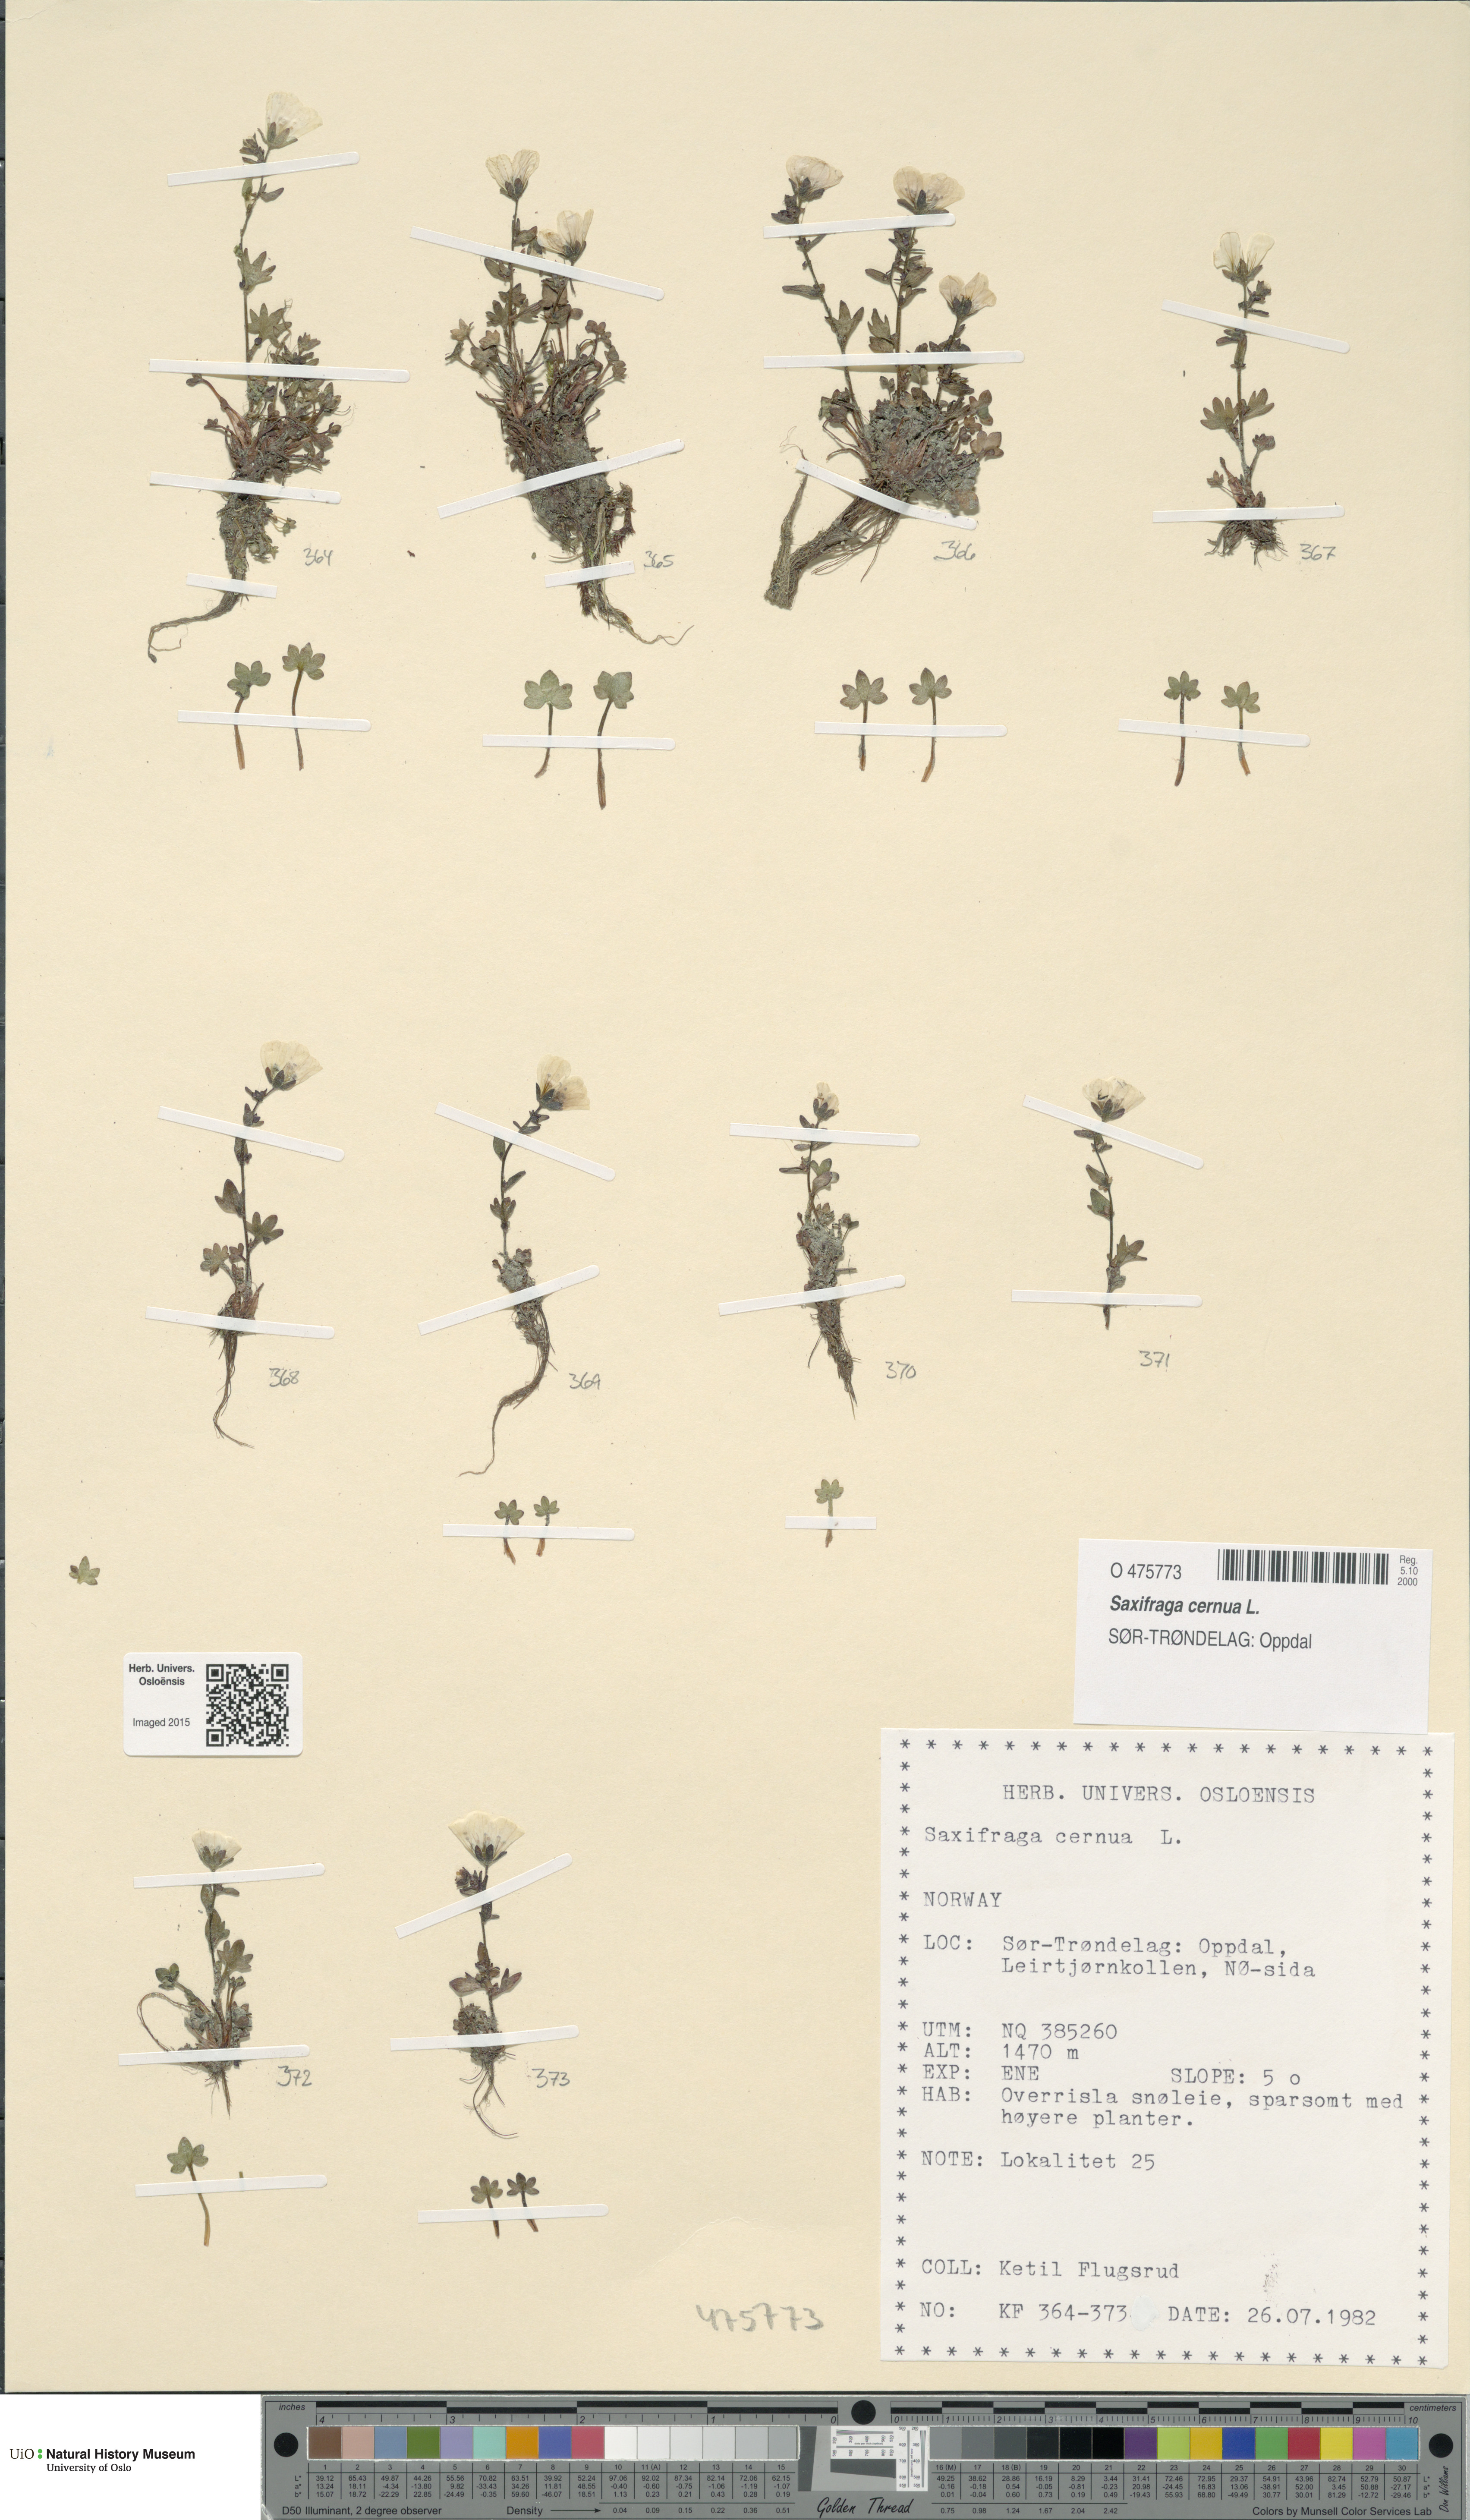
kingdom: Plantae
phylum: Tracheophyta
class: Magnoliopsida
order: Saxifragales
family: Saxifragaceae
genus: Saxifraga
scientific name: Saxifraga cernua
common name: Drooping saxifrage
